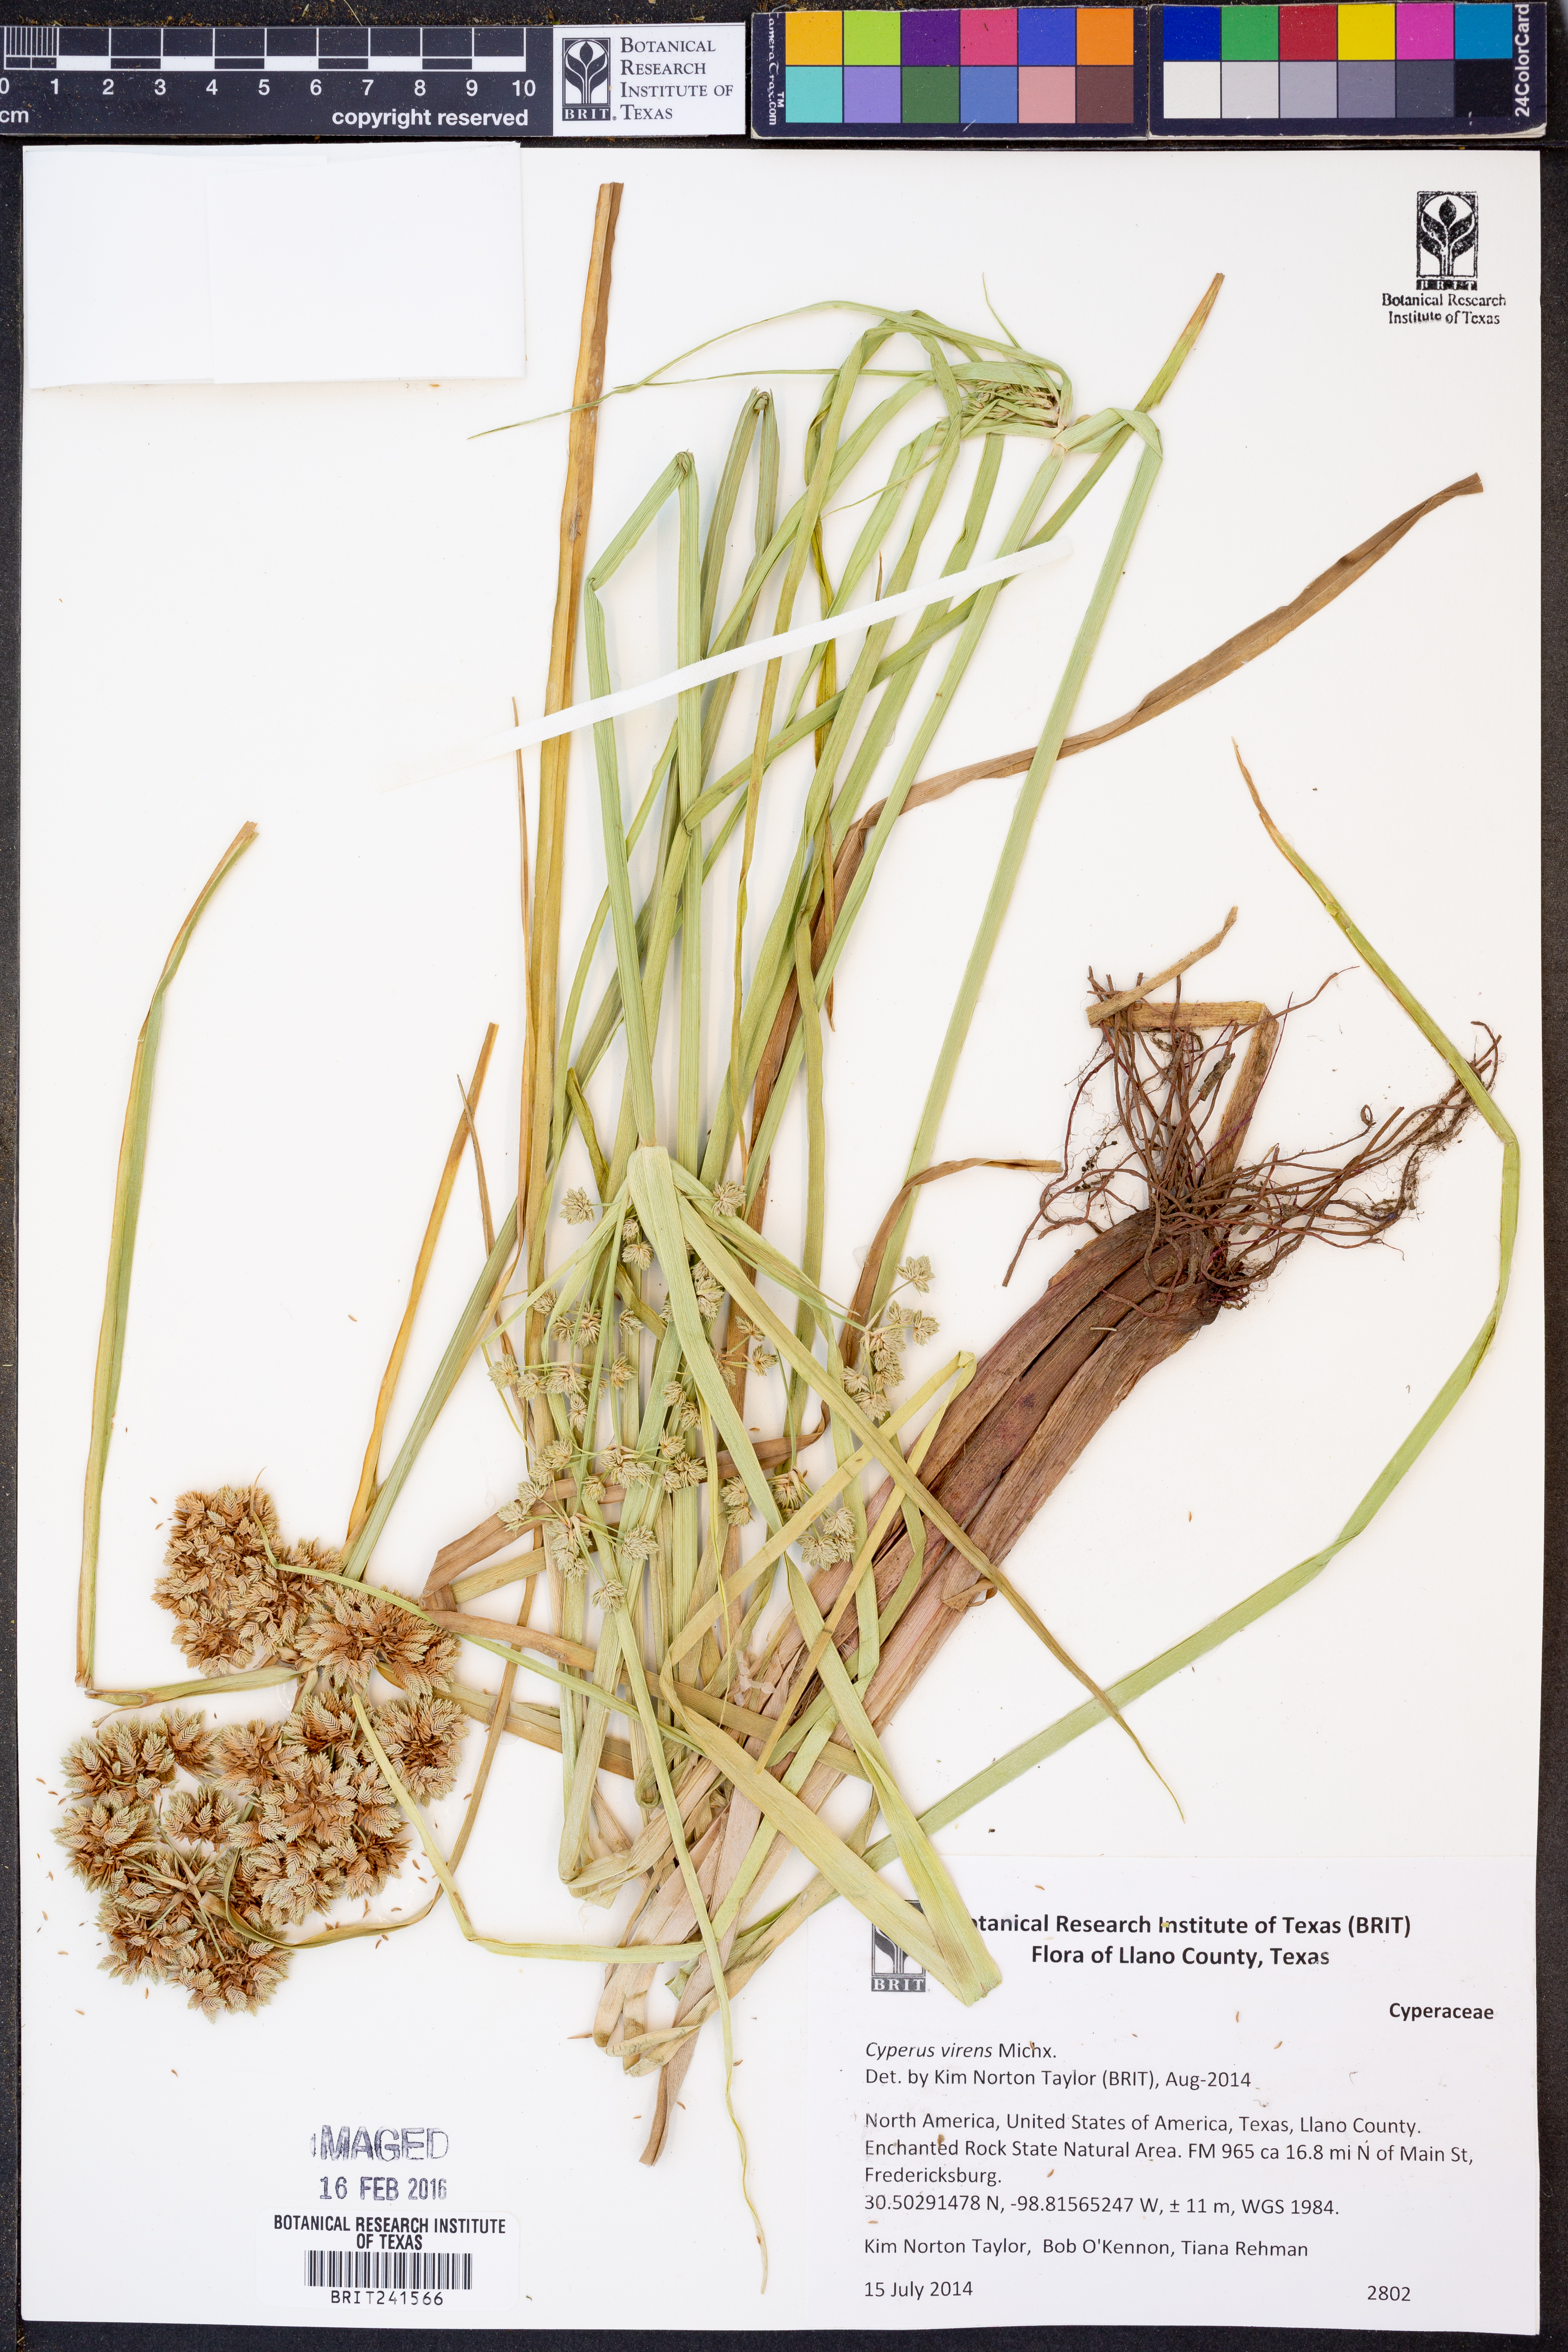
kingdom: Plantae
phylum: Tracheophyta
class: Liliopsida
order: Poales
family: Cyperaceae
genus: Cyperus
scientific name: Cyperus virens
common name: Green flatsedge
